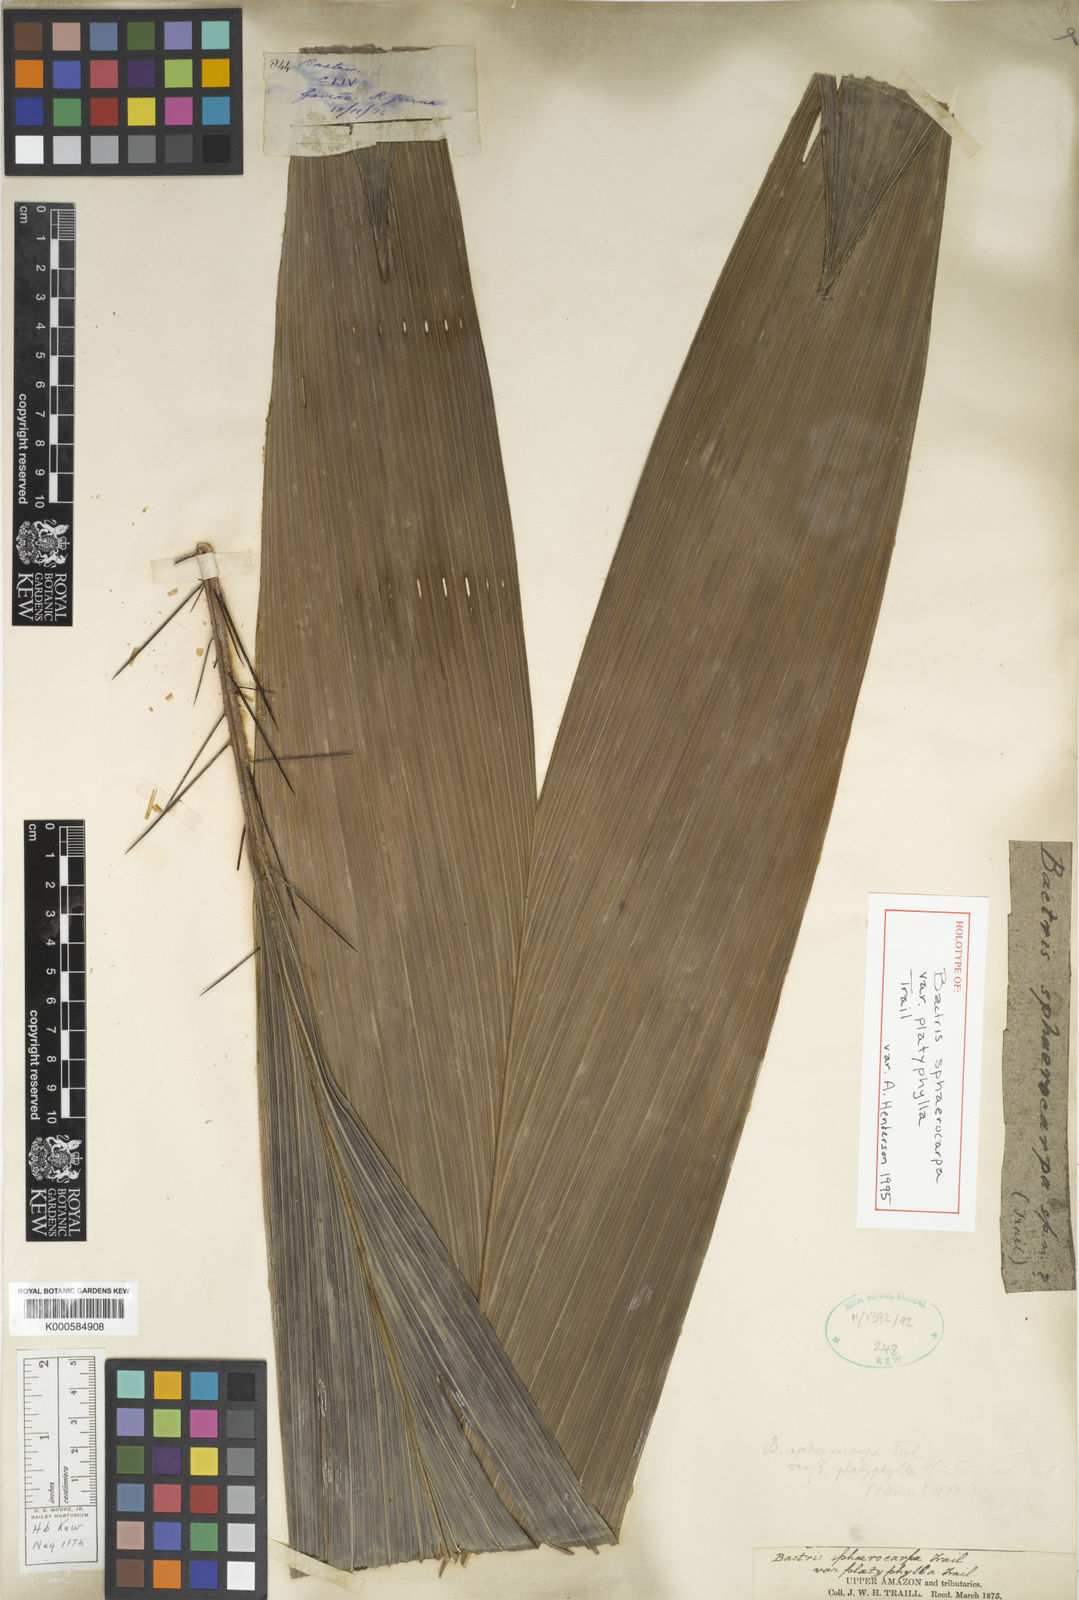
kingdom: Plantae
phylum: Tracheophyta
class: Liliopsida
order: Arecales
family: Arecaceae
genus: Bactris
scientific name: Bactris sphaerocarpa
